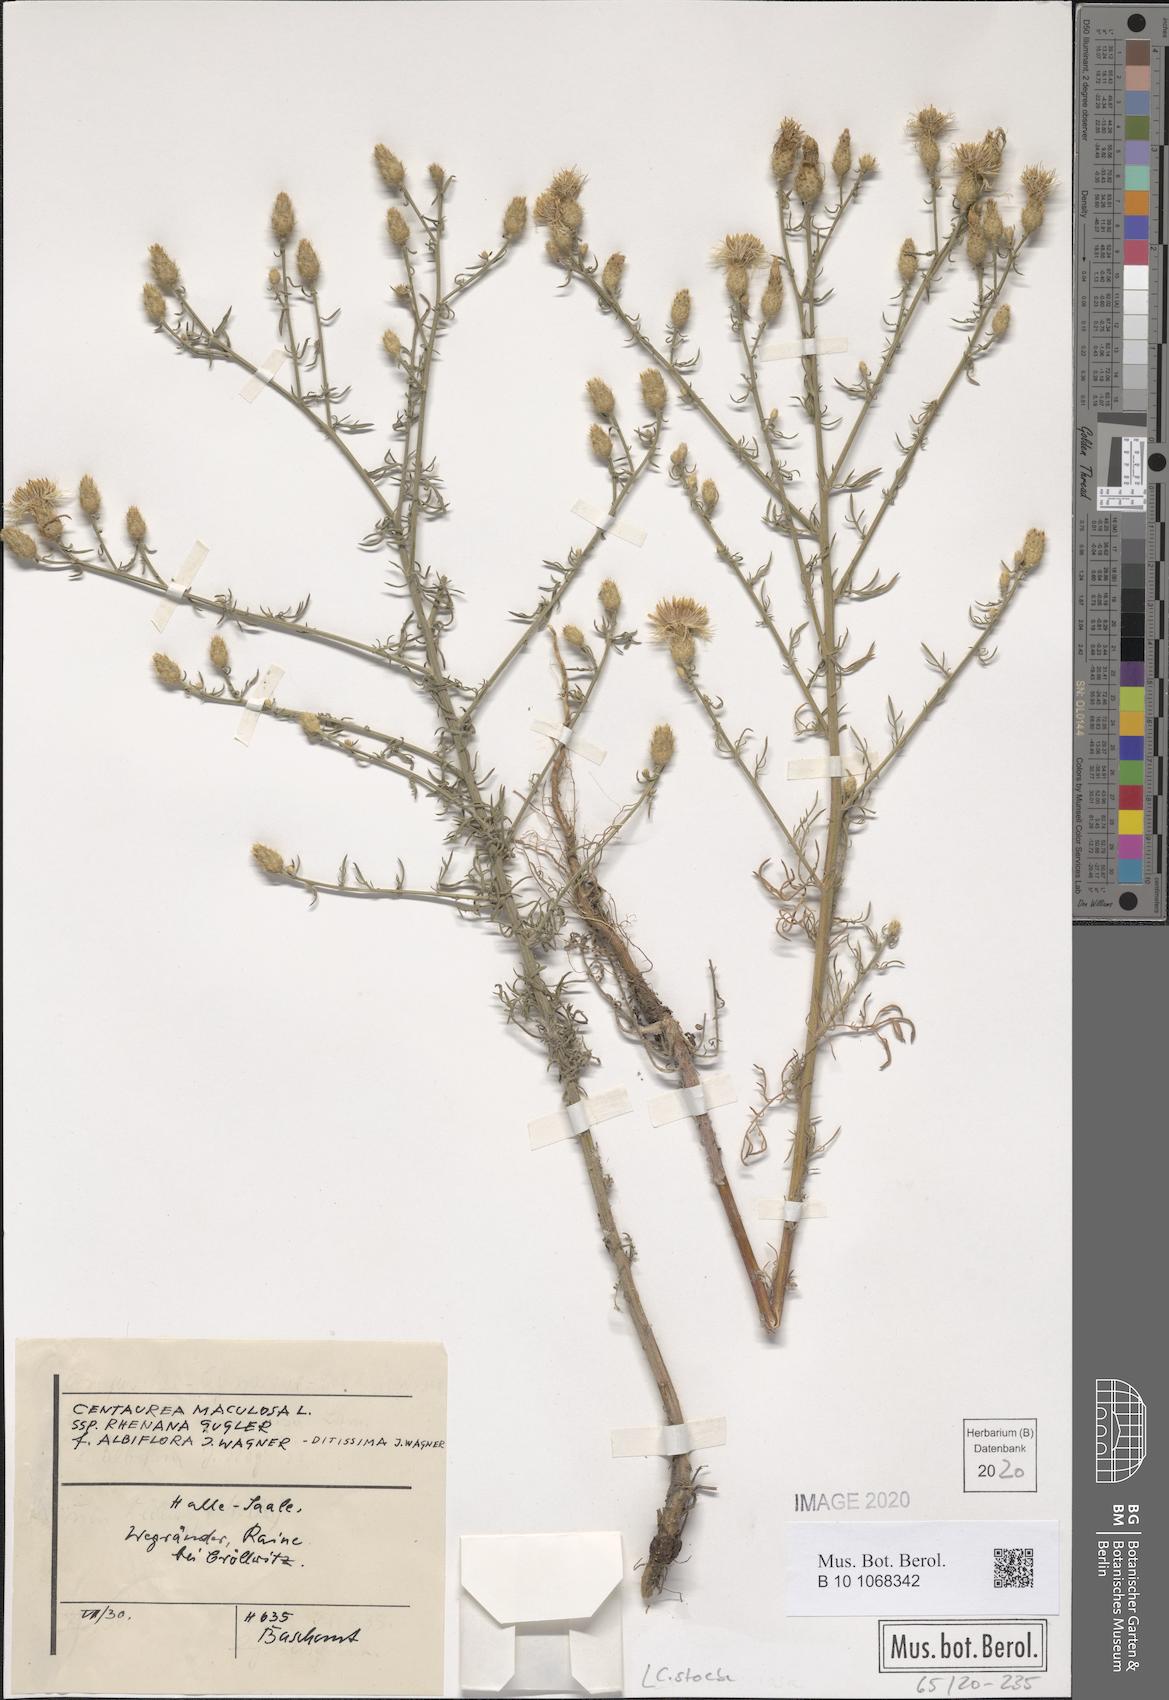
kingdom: Plantae
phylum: Tracheophyta
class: Magnoliopsida
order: Asterales
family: Asteraceae
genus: Centaurea
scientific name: Centaurea stoebe
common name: Spotted knapweed
